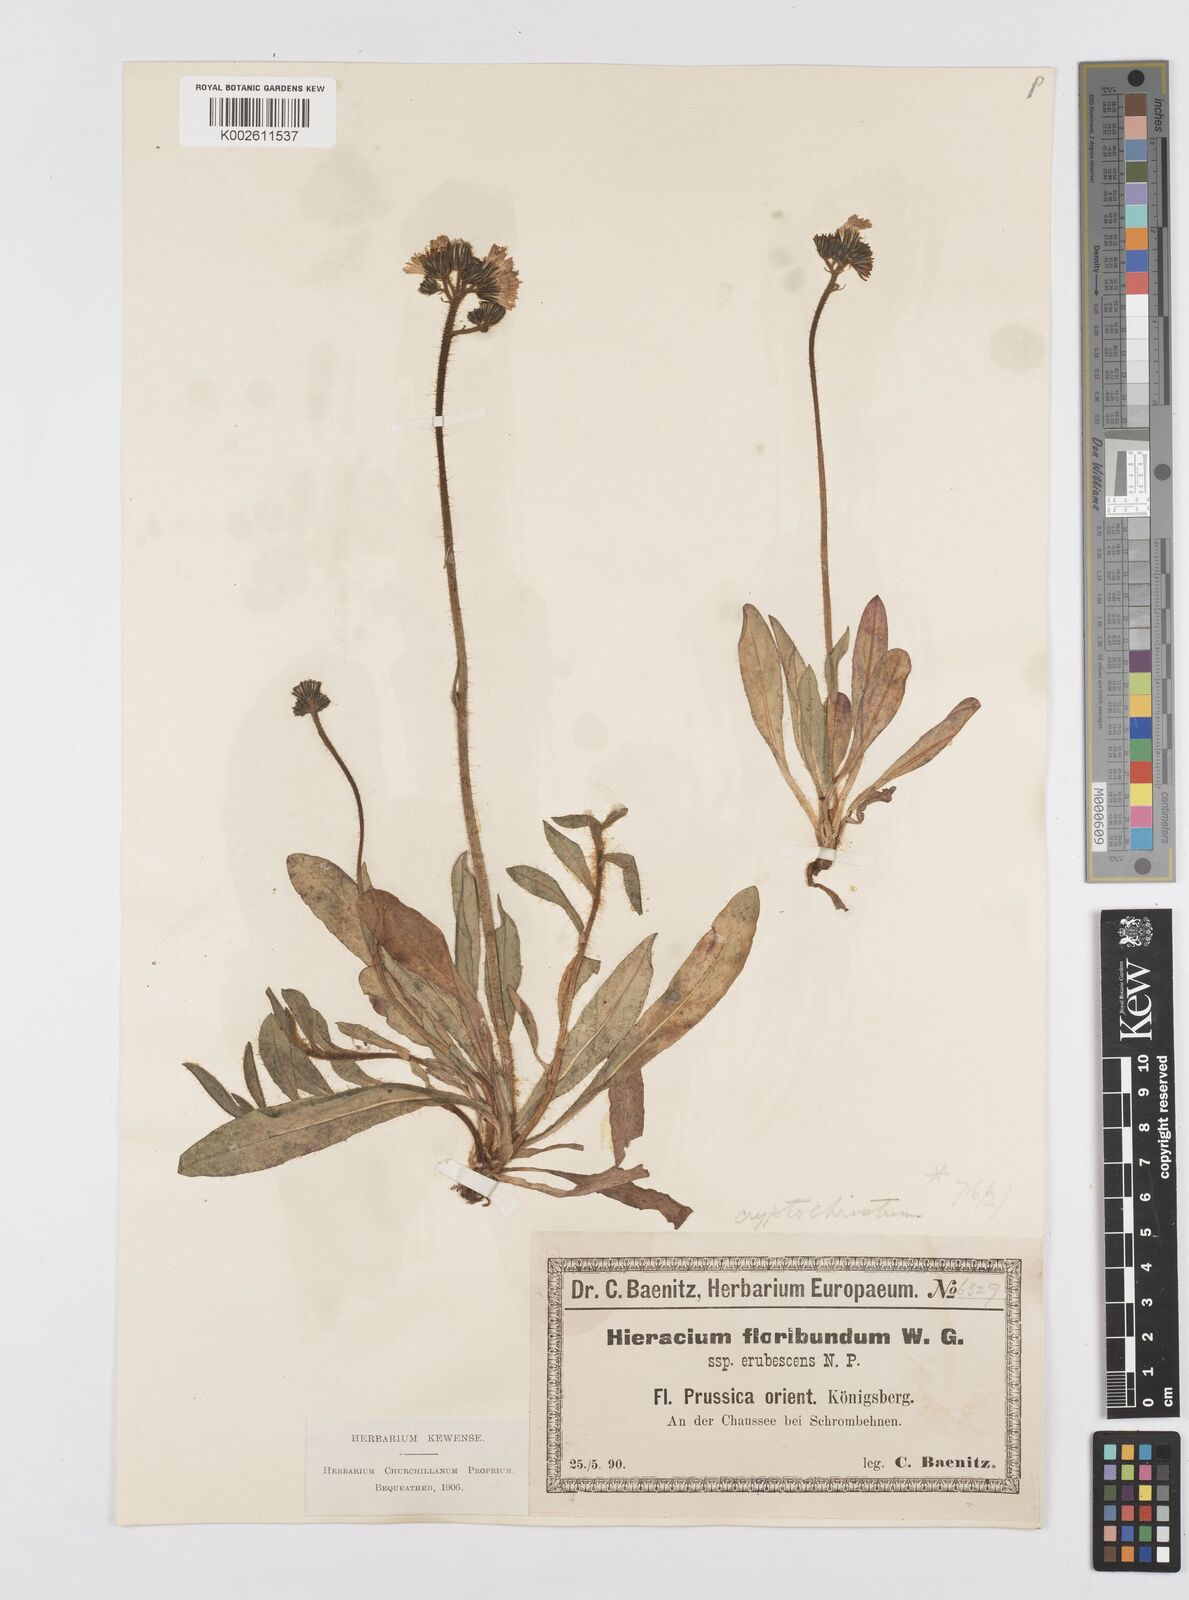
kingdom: Plantae
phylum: Tracheophyta
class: Magnoliopsida
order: Asterales
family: Asteraceae
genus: Pilosella
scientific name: Pilosella floribunda
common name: Glaucous hawkweed
